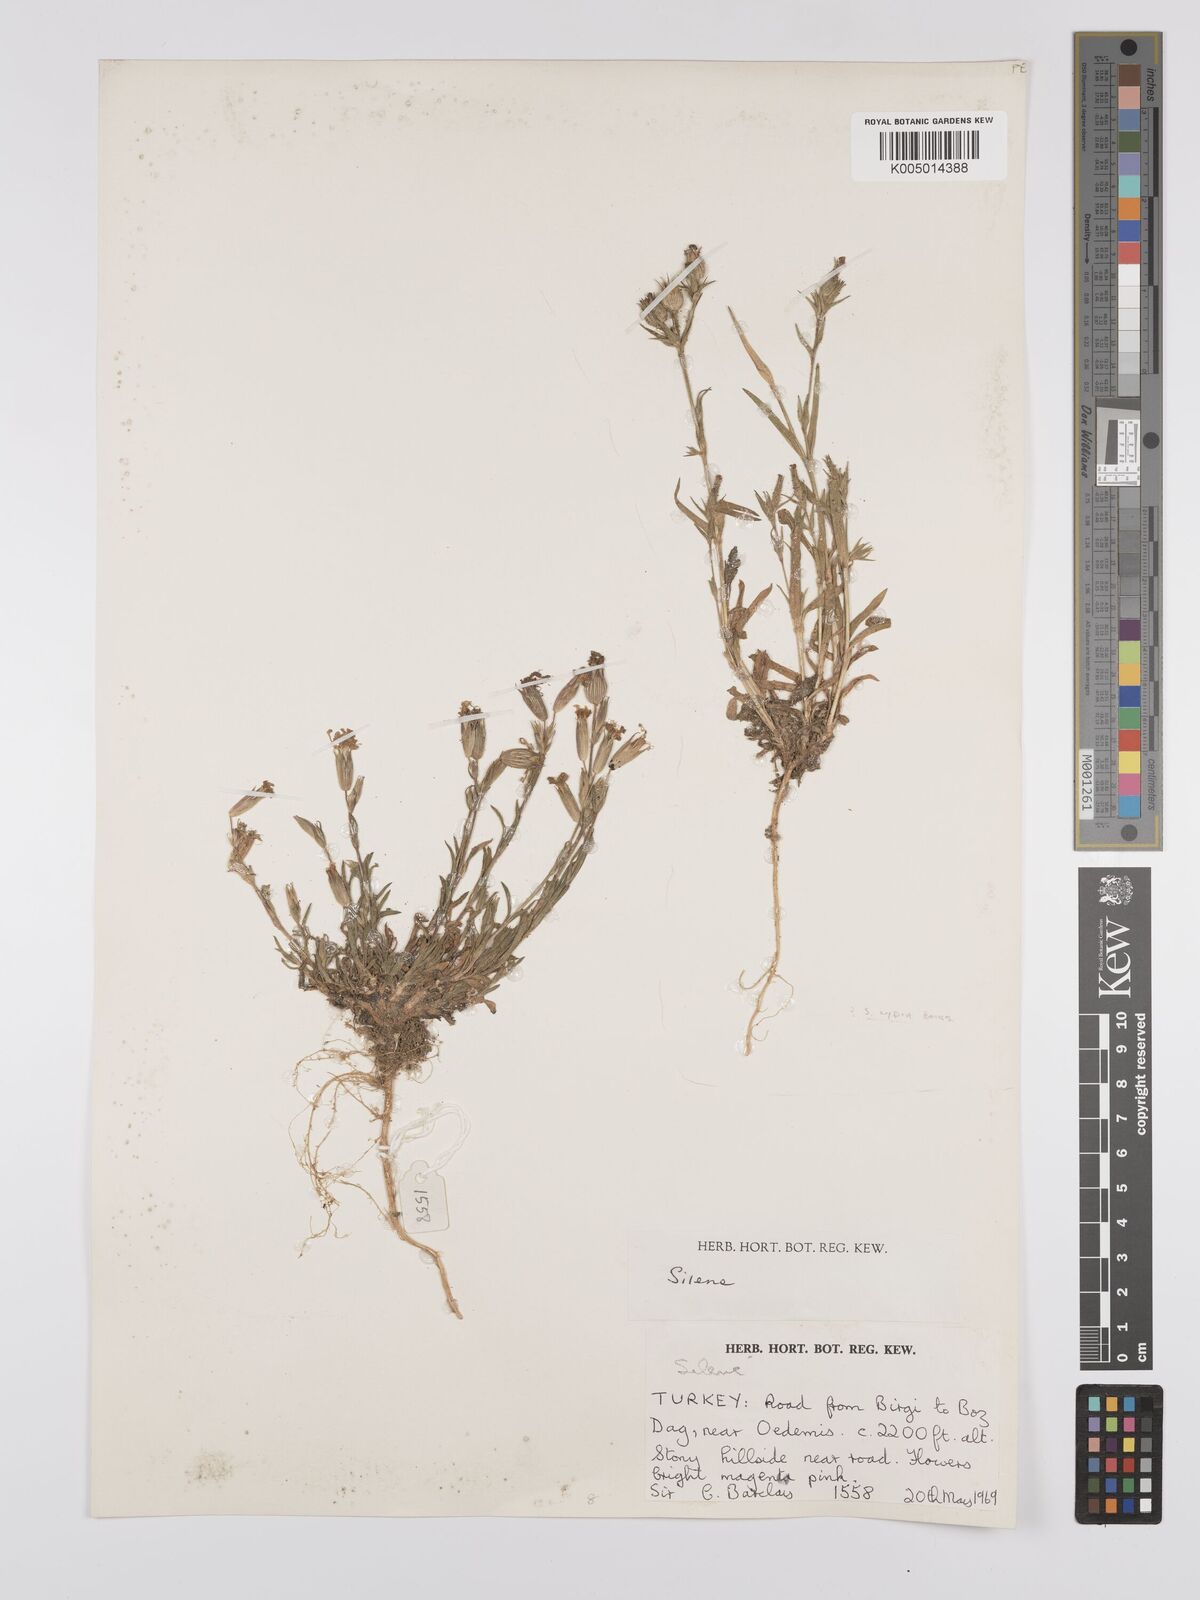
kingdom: Plantae
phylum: Tracheophyta
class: Magnoliopsida
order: Caryophyllales
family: Caryophyllaceae
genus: Silene
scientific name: Silene
